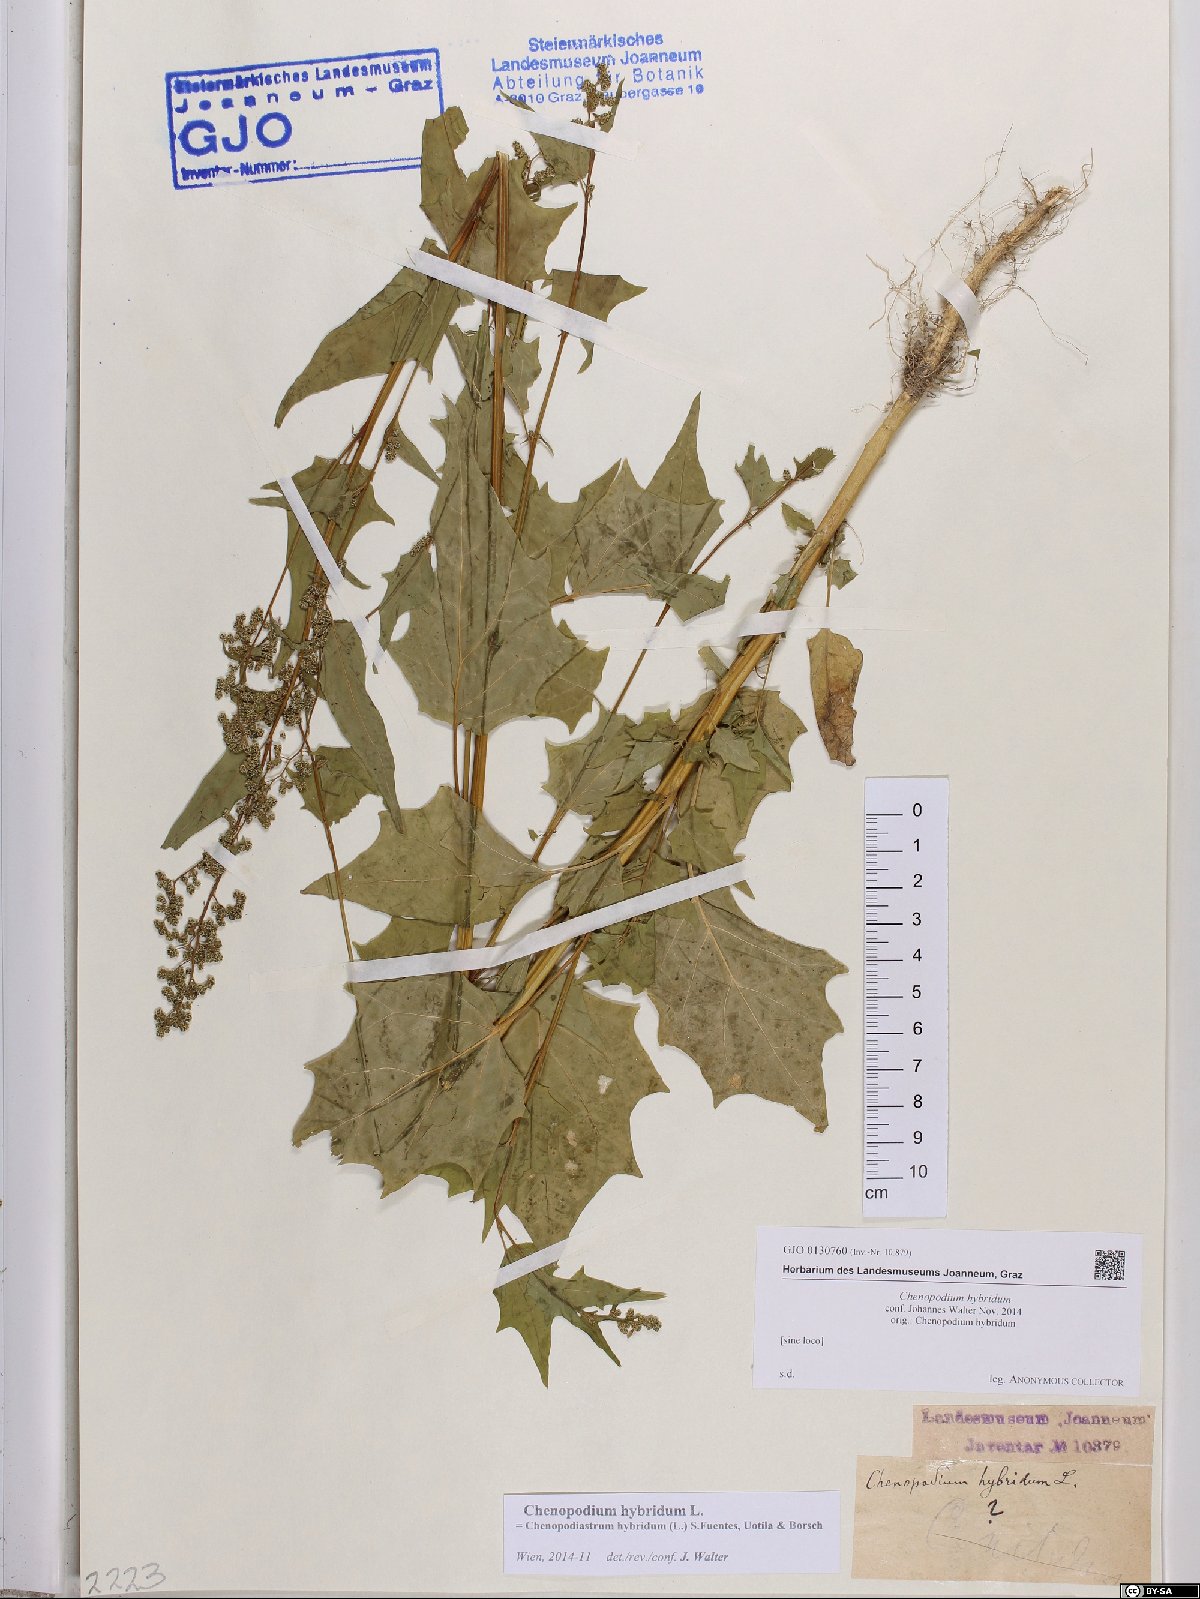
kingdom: Plantae
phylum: Tracheophyta
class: Magnoliopsida
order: Caryophyllales
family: Amaranthaceae
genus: Chenopodiastrum
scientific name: Chenopodiastrum hybridum
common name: Mapleleaf goosefoot
